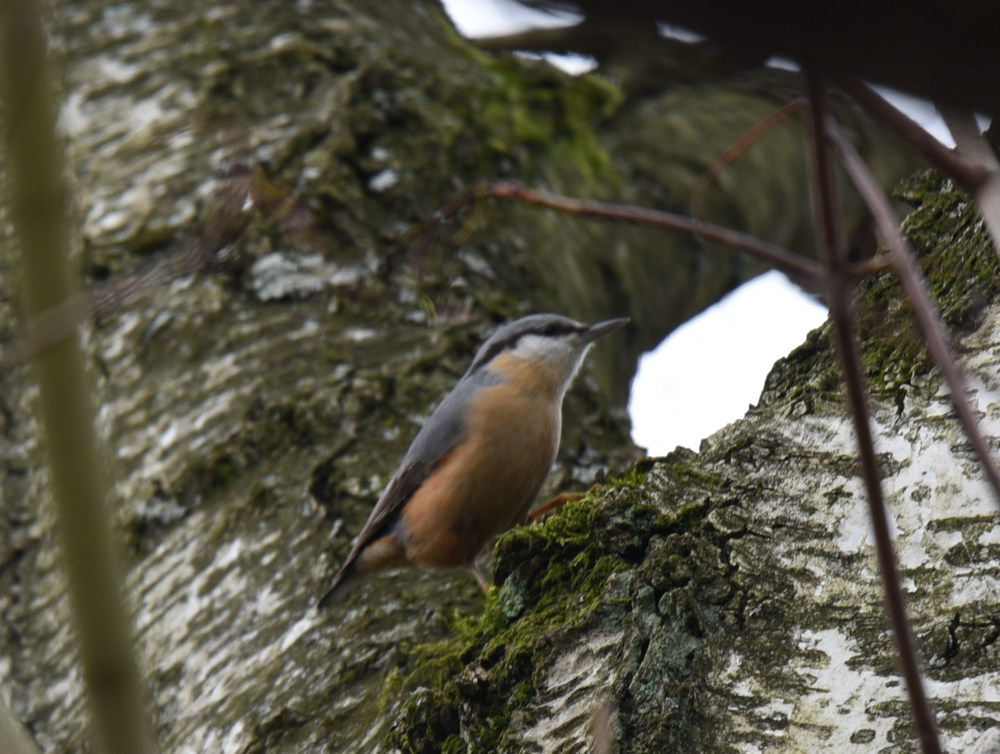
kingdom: Animalia
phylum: Chordata
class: Aves
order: Passeriformes
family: Sittidae
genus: Sitta
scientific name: Sitta europaea
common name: Eurasian nuthatch
